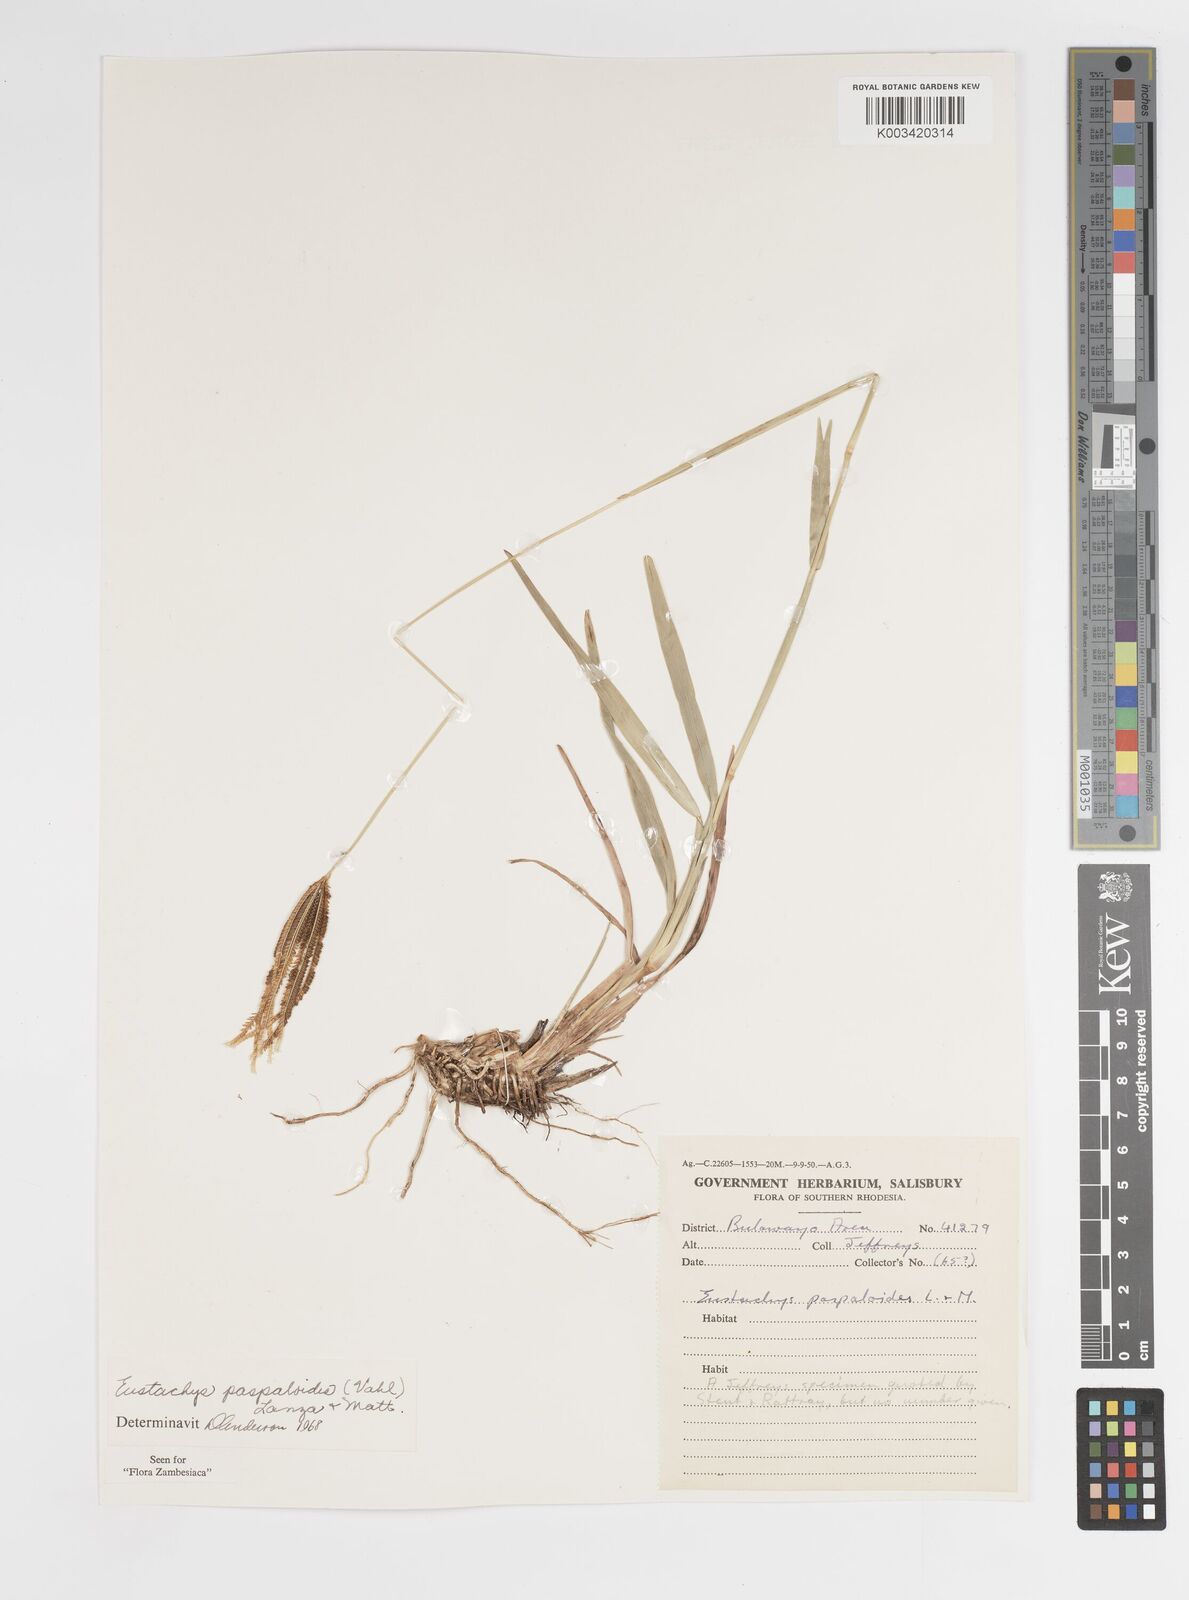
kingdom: Plantae
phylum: Tracheophyta
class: Liliopsida
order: Poales
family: Poaceae
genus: Eustachys
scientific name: Eustachys paspaloides
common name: Caribbean fingergrass
